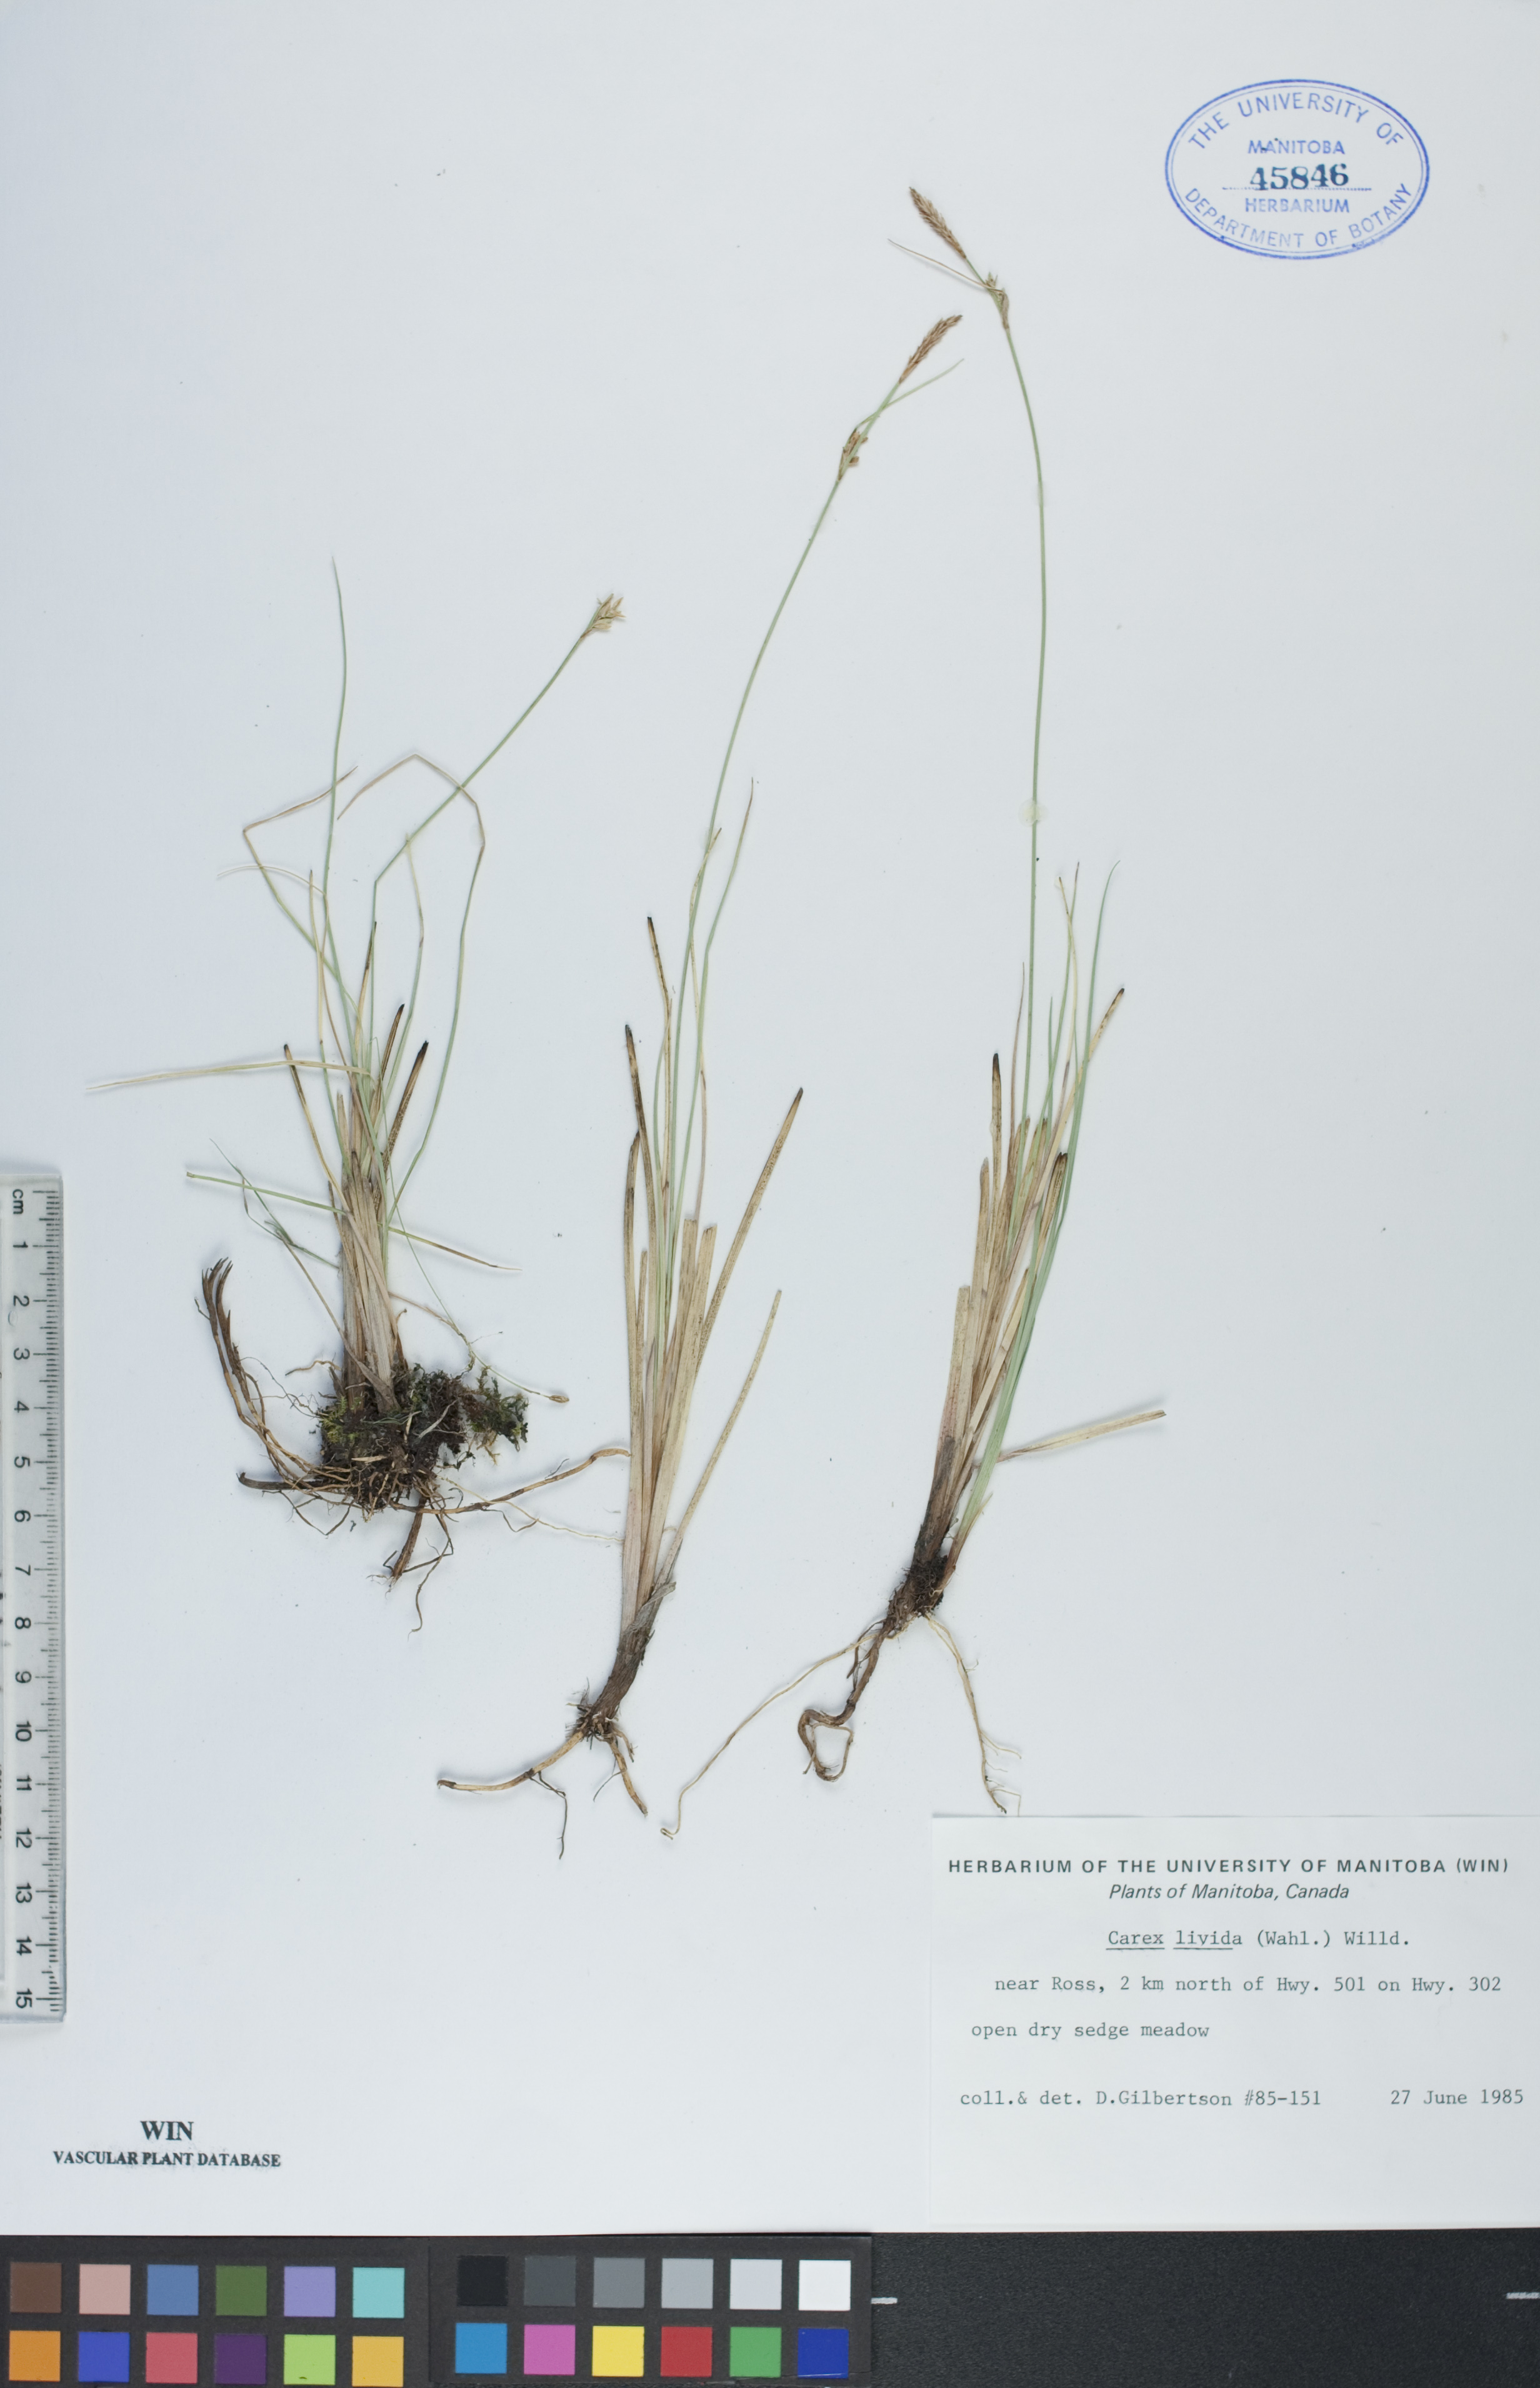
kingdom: Plantae
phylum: Tracheophyta
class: Liliopsida
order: Poales
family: Cyperaceae
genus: Carex
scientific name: Carex livida
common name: Livid sedge
